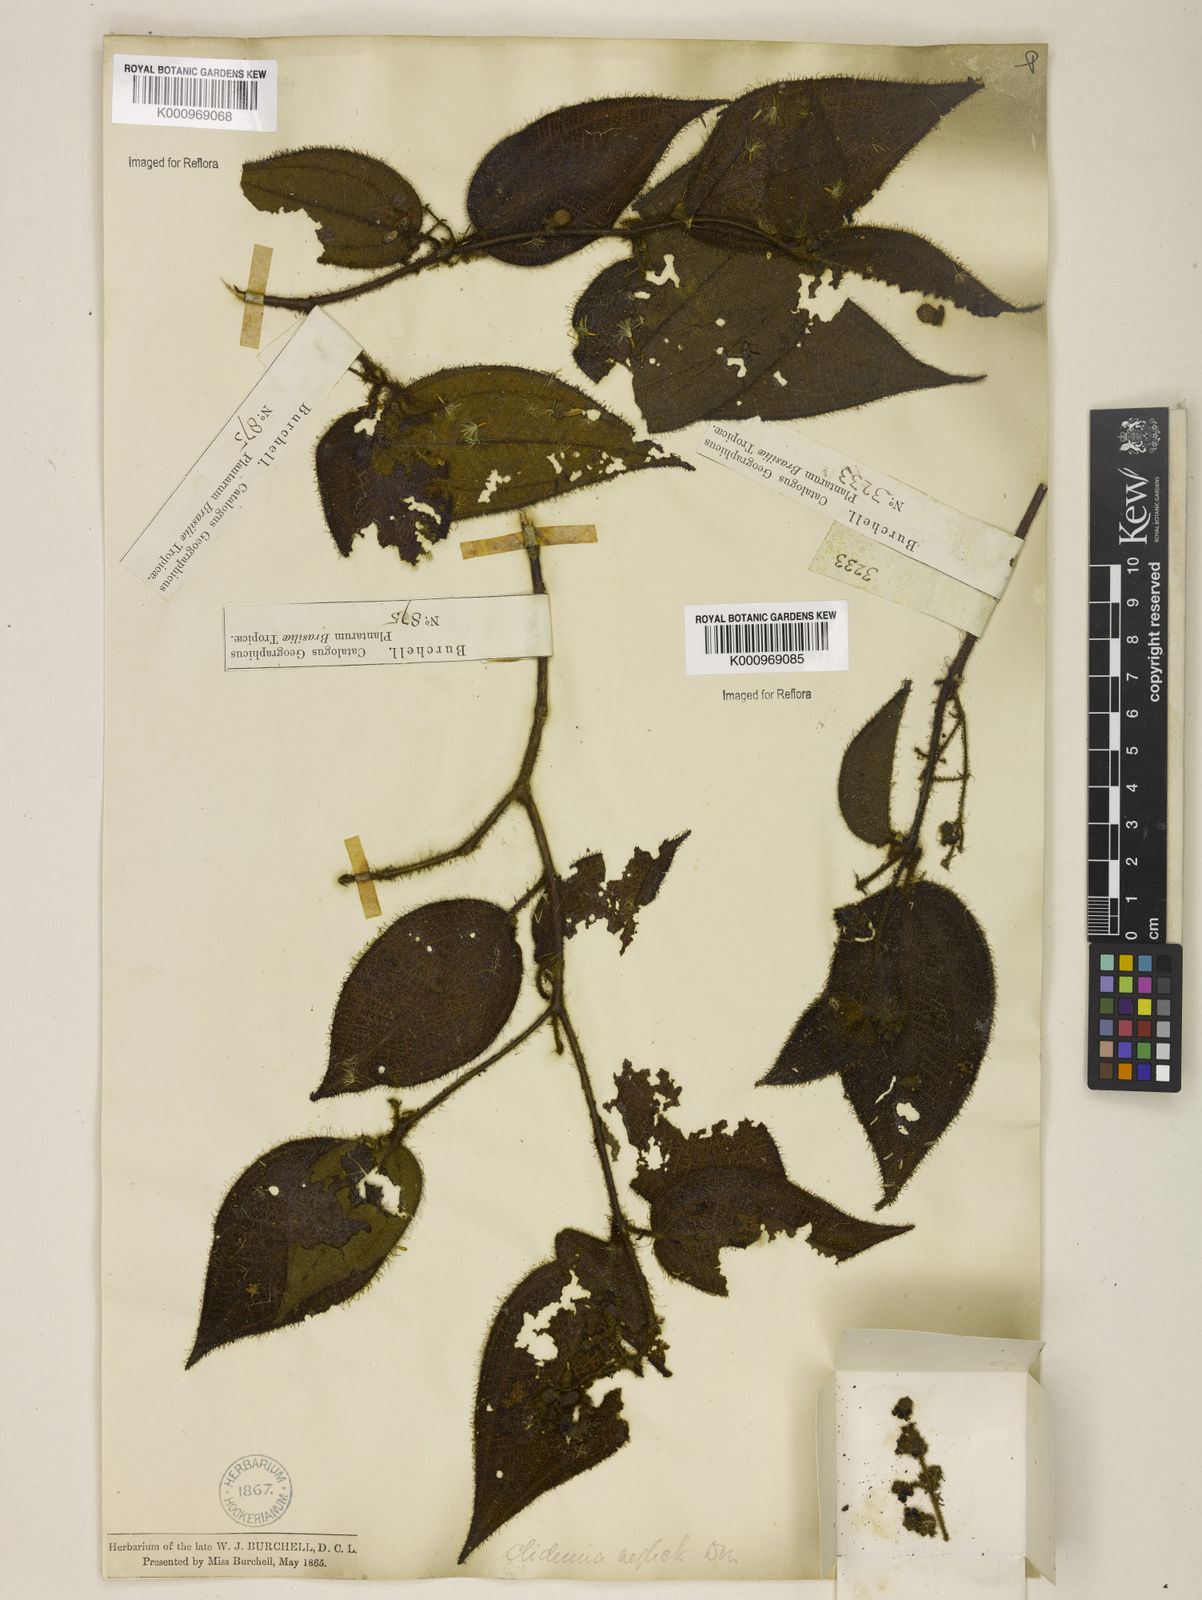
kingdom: Plantae
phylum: Tracheophyta
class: Magnoliopsida
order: Myrtales
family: Melastomataceae
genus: Miconia
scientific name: Miconia dependens
